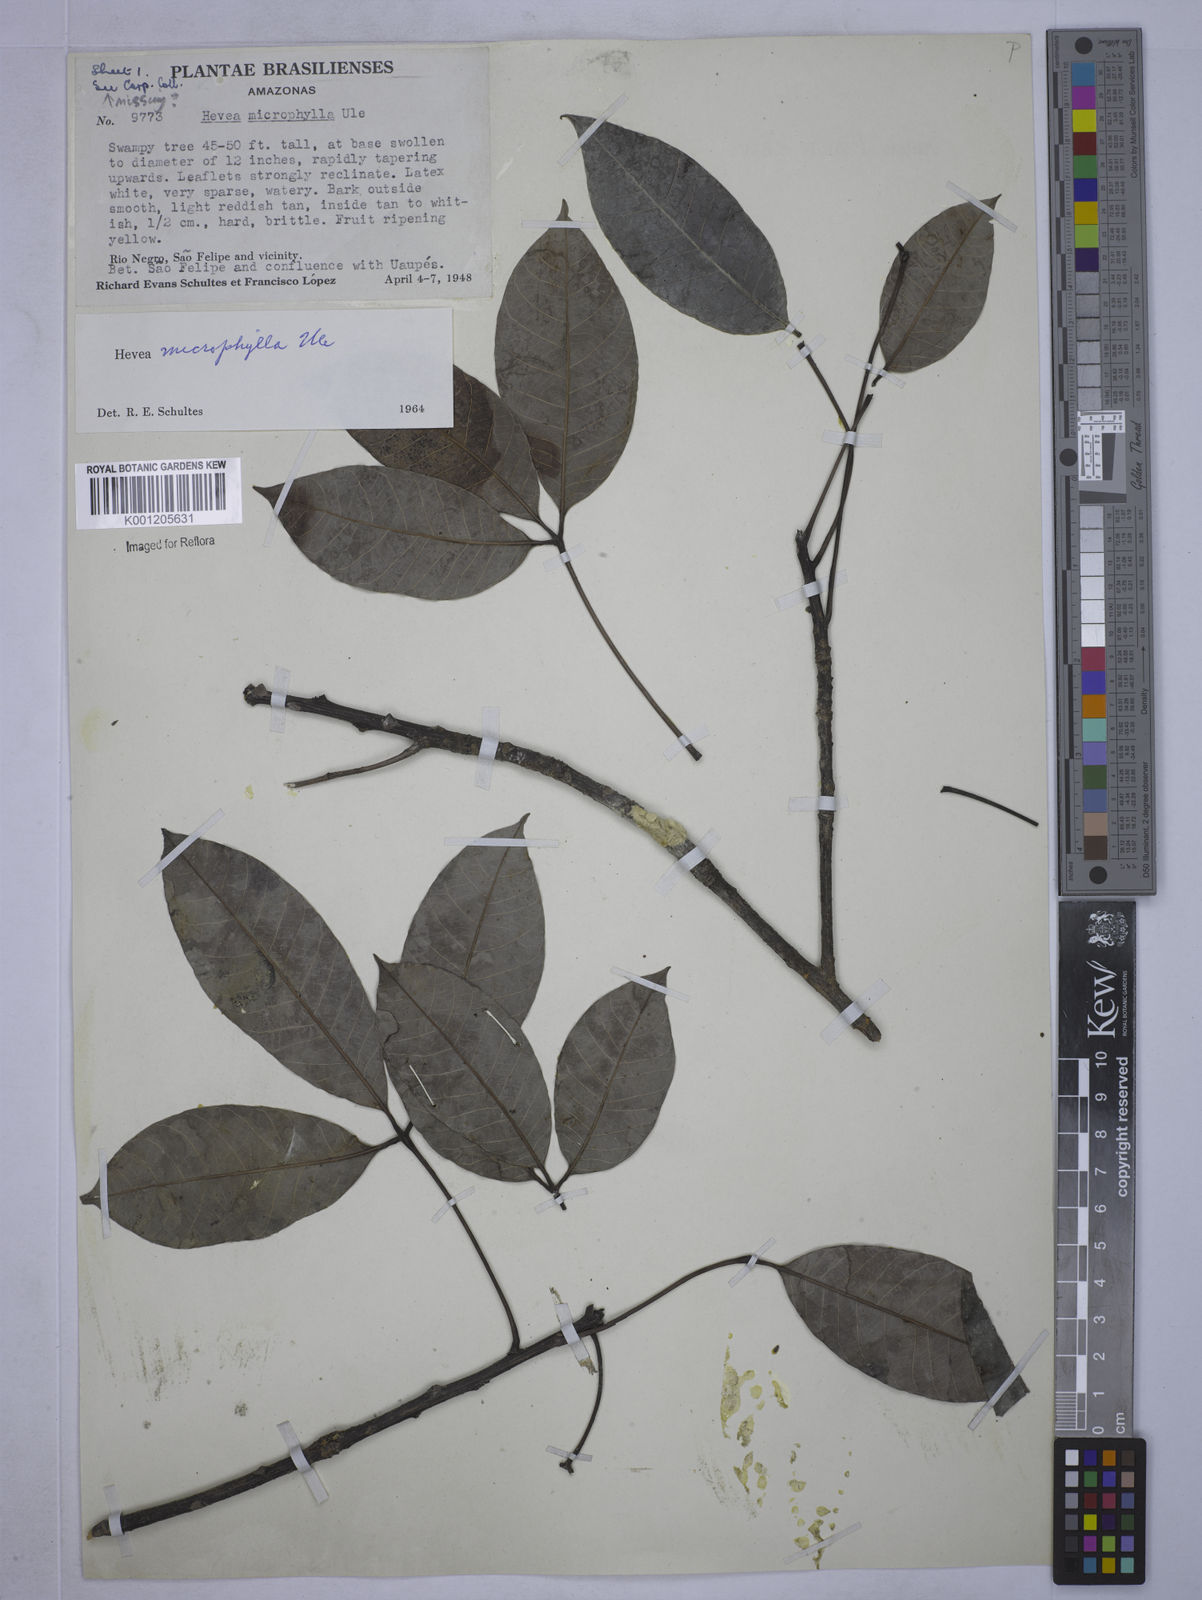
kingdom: Plantae
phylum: Tracheophyta
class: Magnoliopsida
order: Malpighiales
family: Euphorbiaceae
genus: Hevea
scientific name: Hevea microphylla
